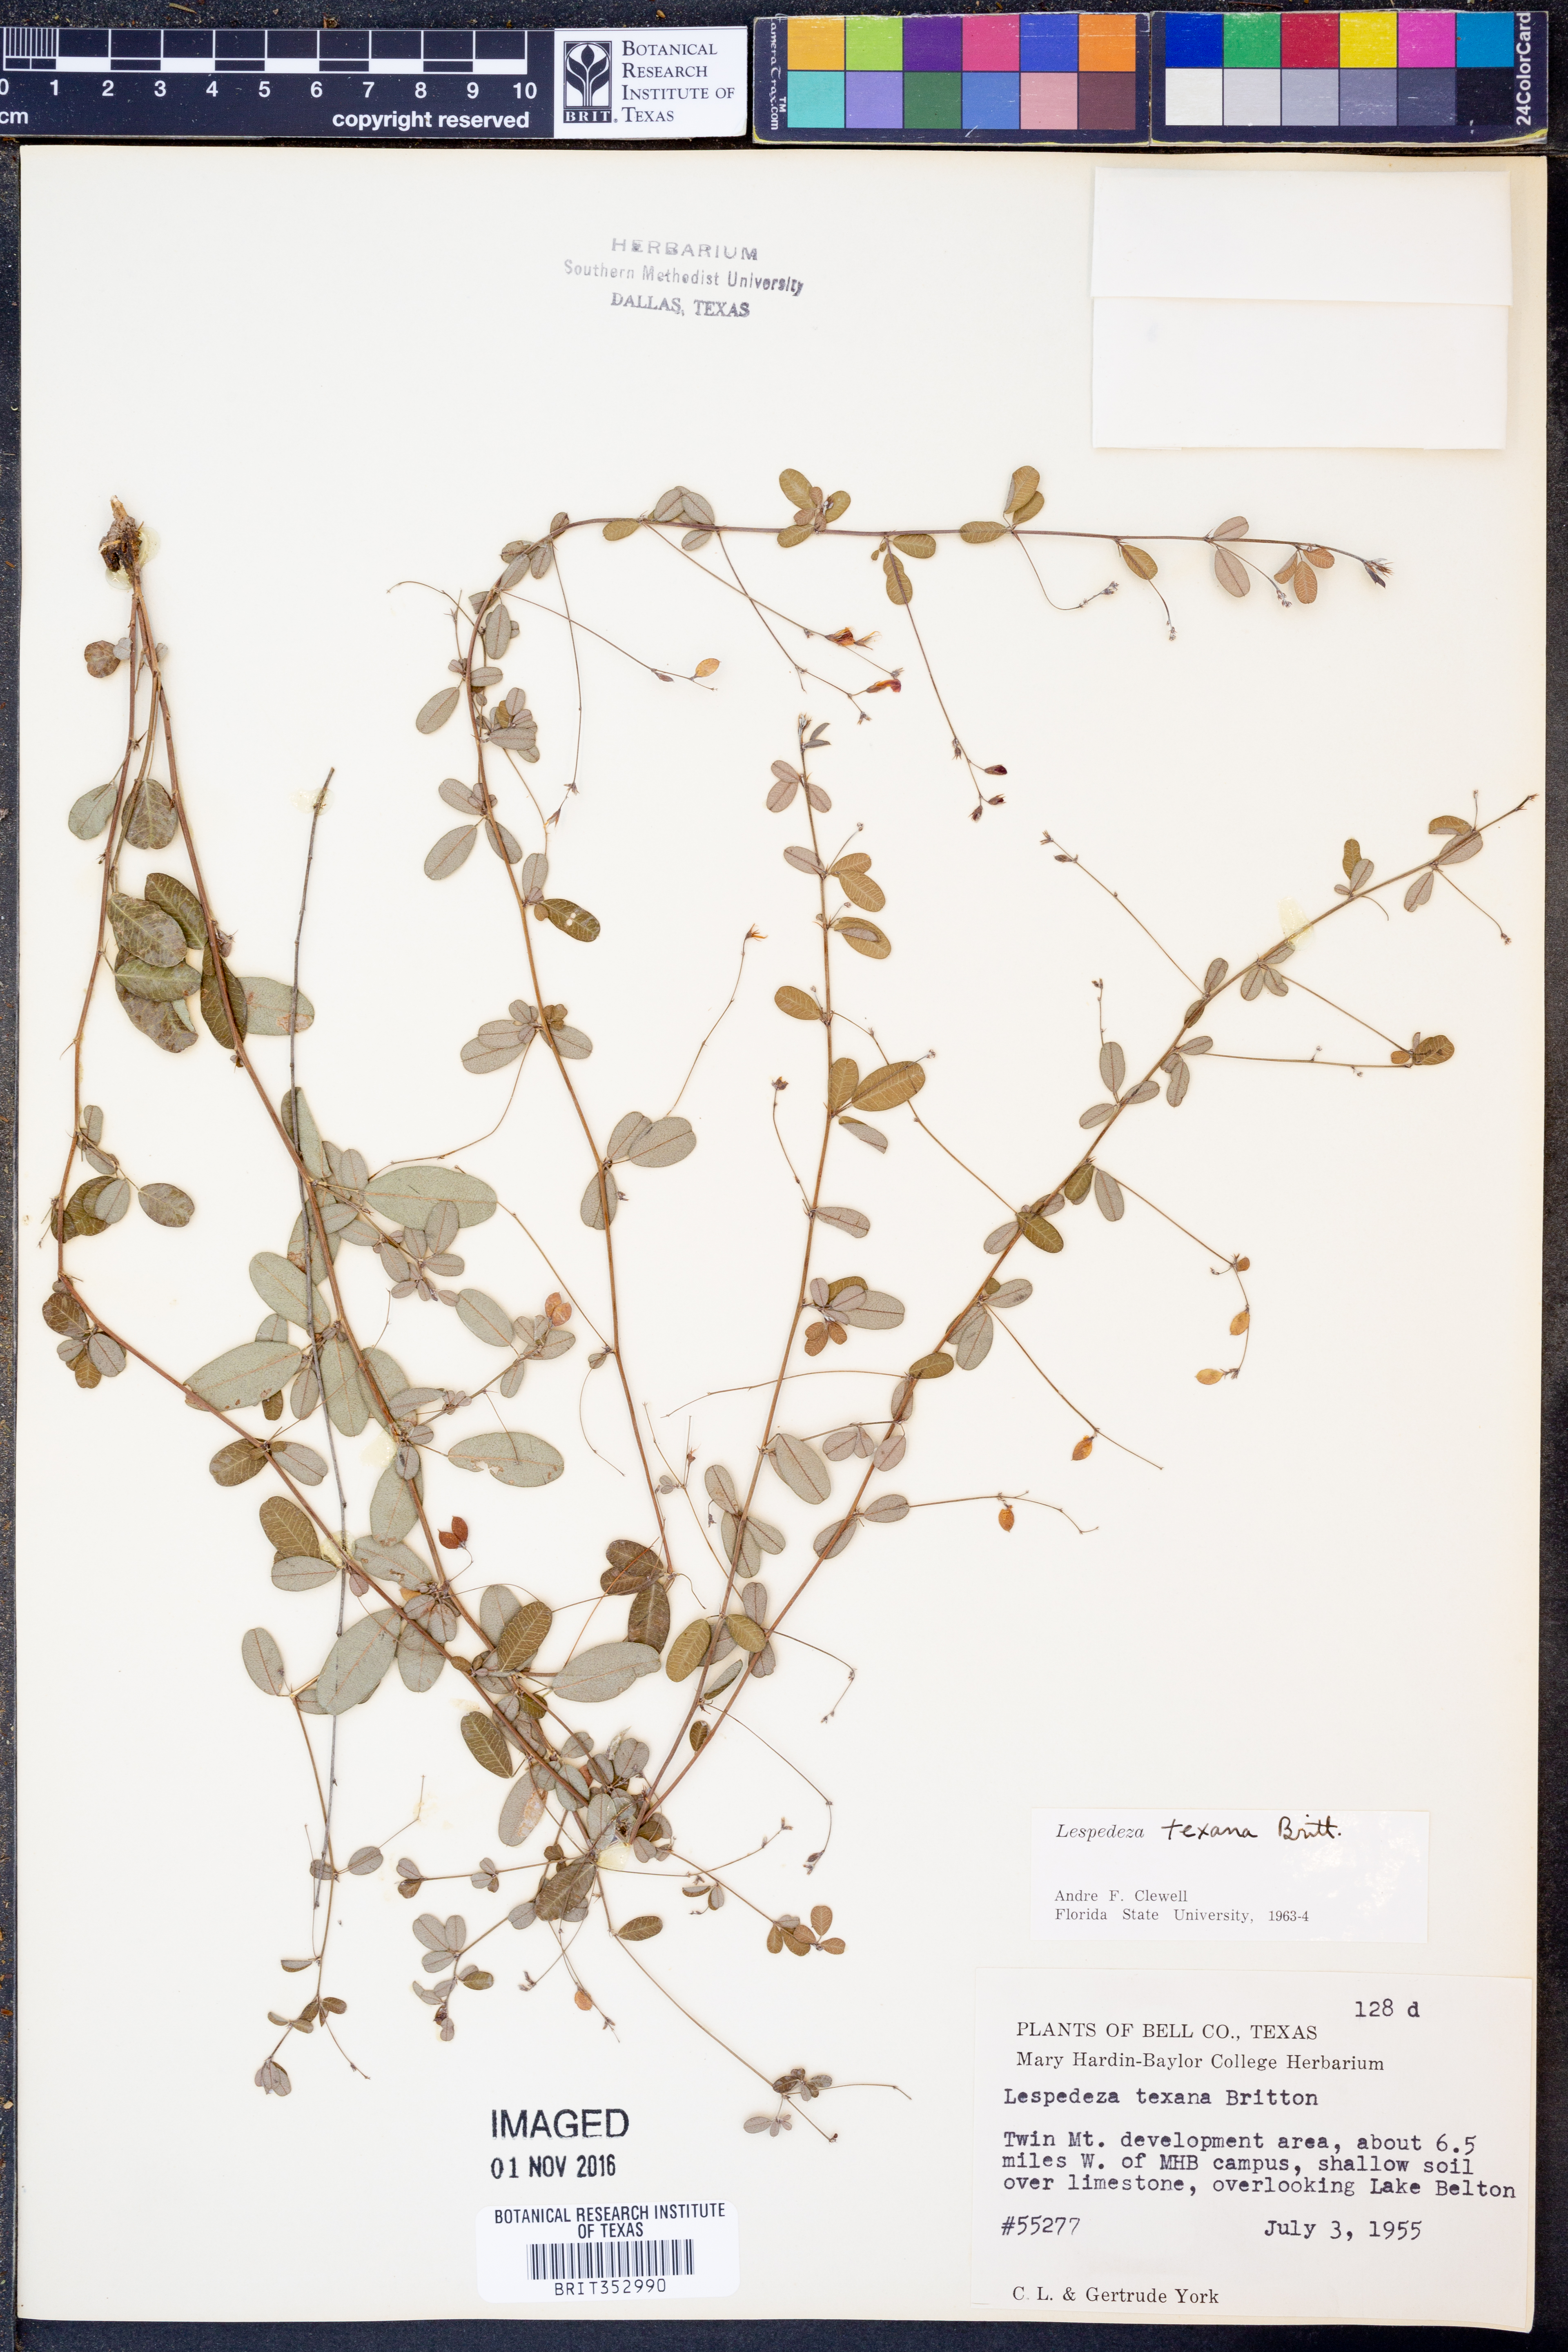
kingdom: Plantae
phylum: Tracheophyta
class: Magnoliopsida
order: Fabales
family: Fabaceae
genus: Lespedeza
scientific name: Lespedeza texana
